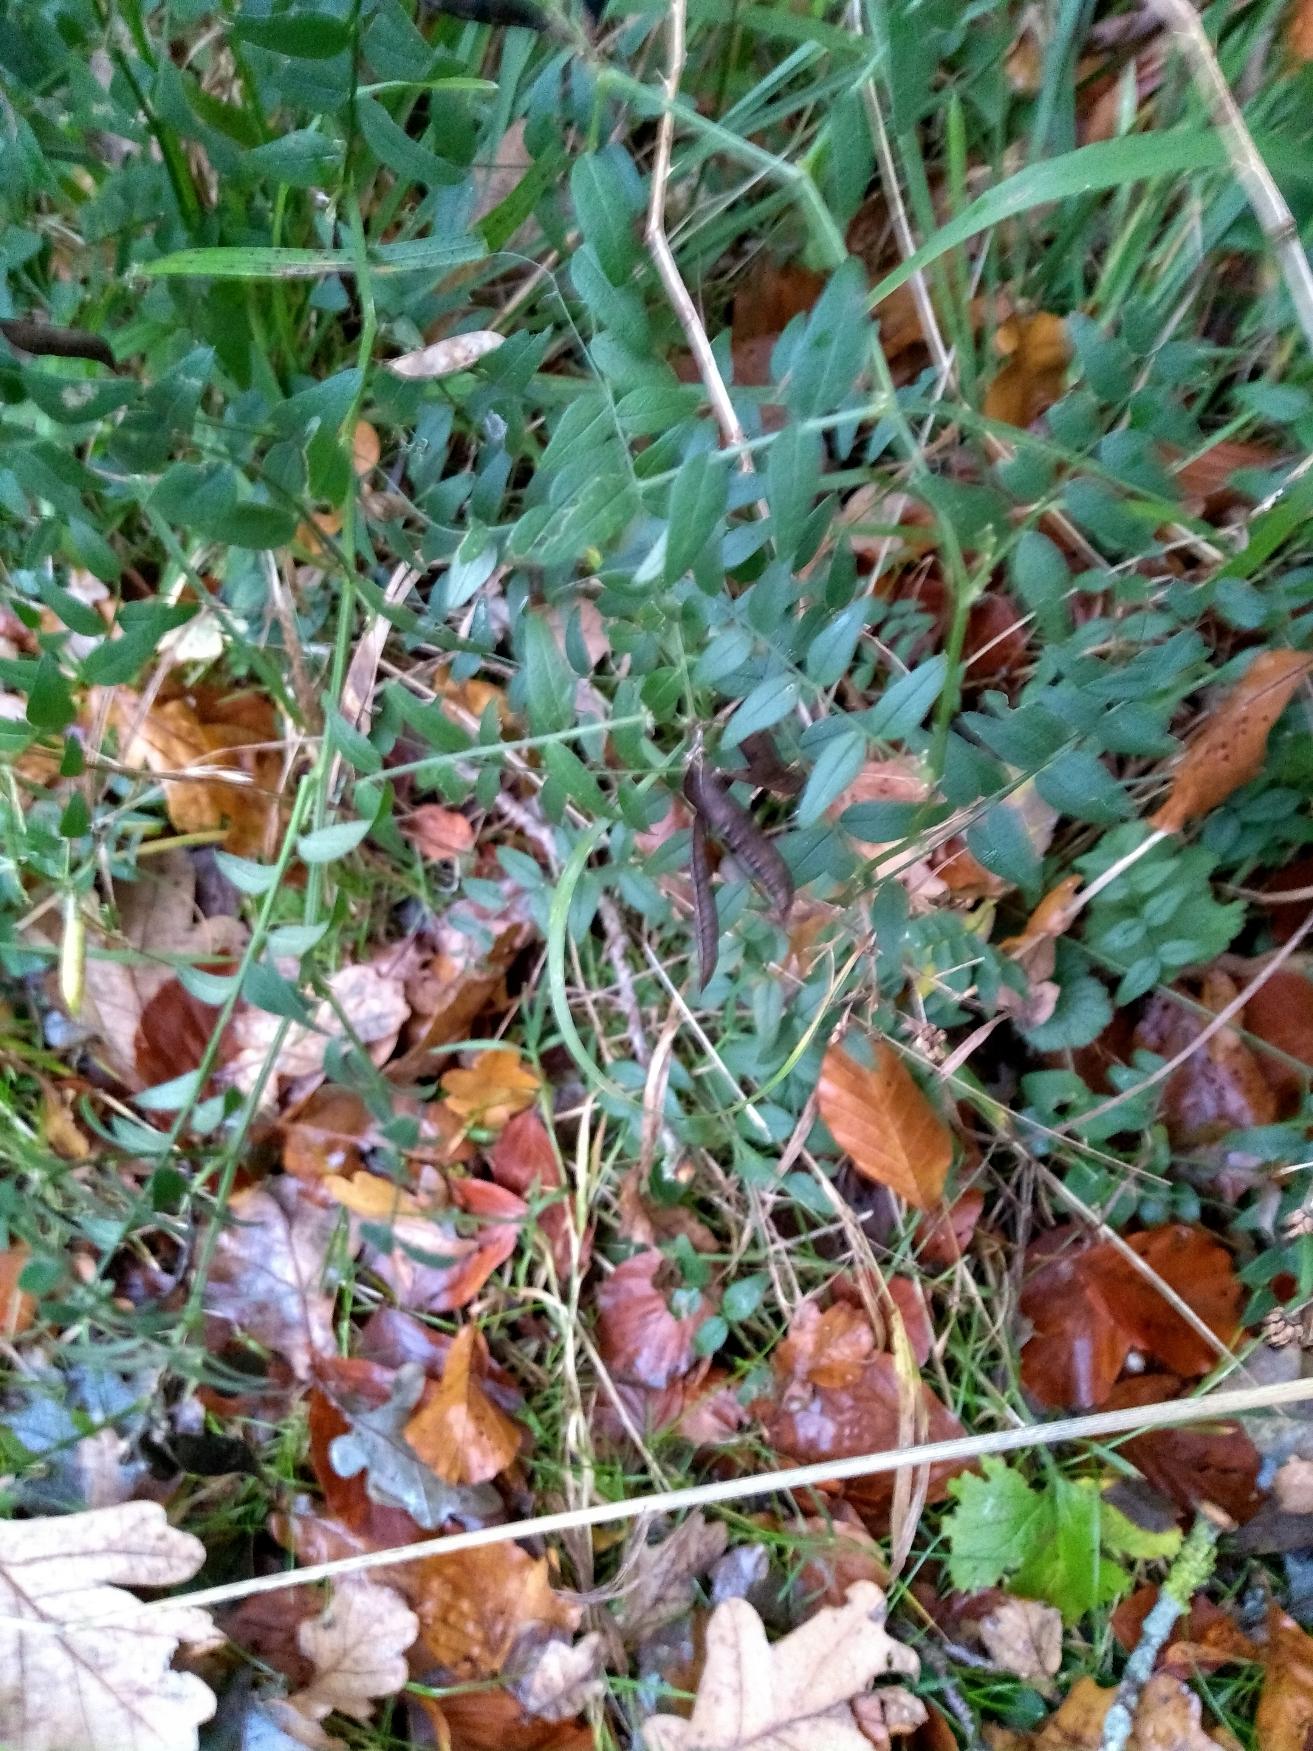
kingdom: Plantae
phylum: Tracheophyta
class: Magnoliopsida
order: Fabales
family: Fabaceae
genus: Vicia
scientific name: Vicia sepium
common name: Gærde-vikke
